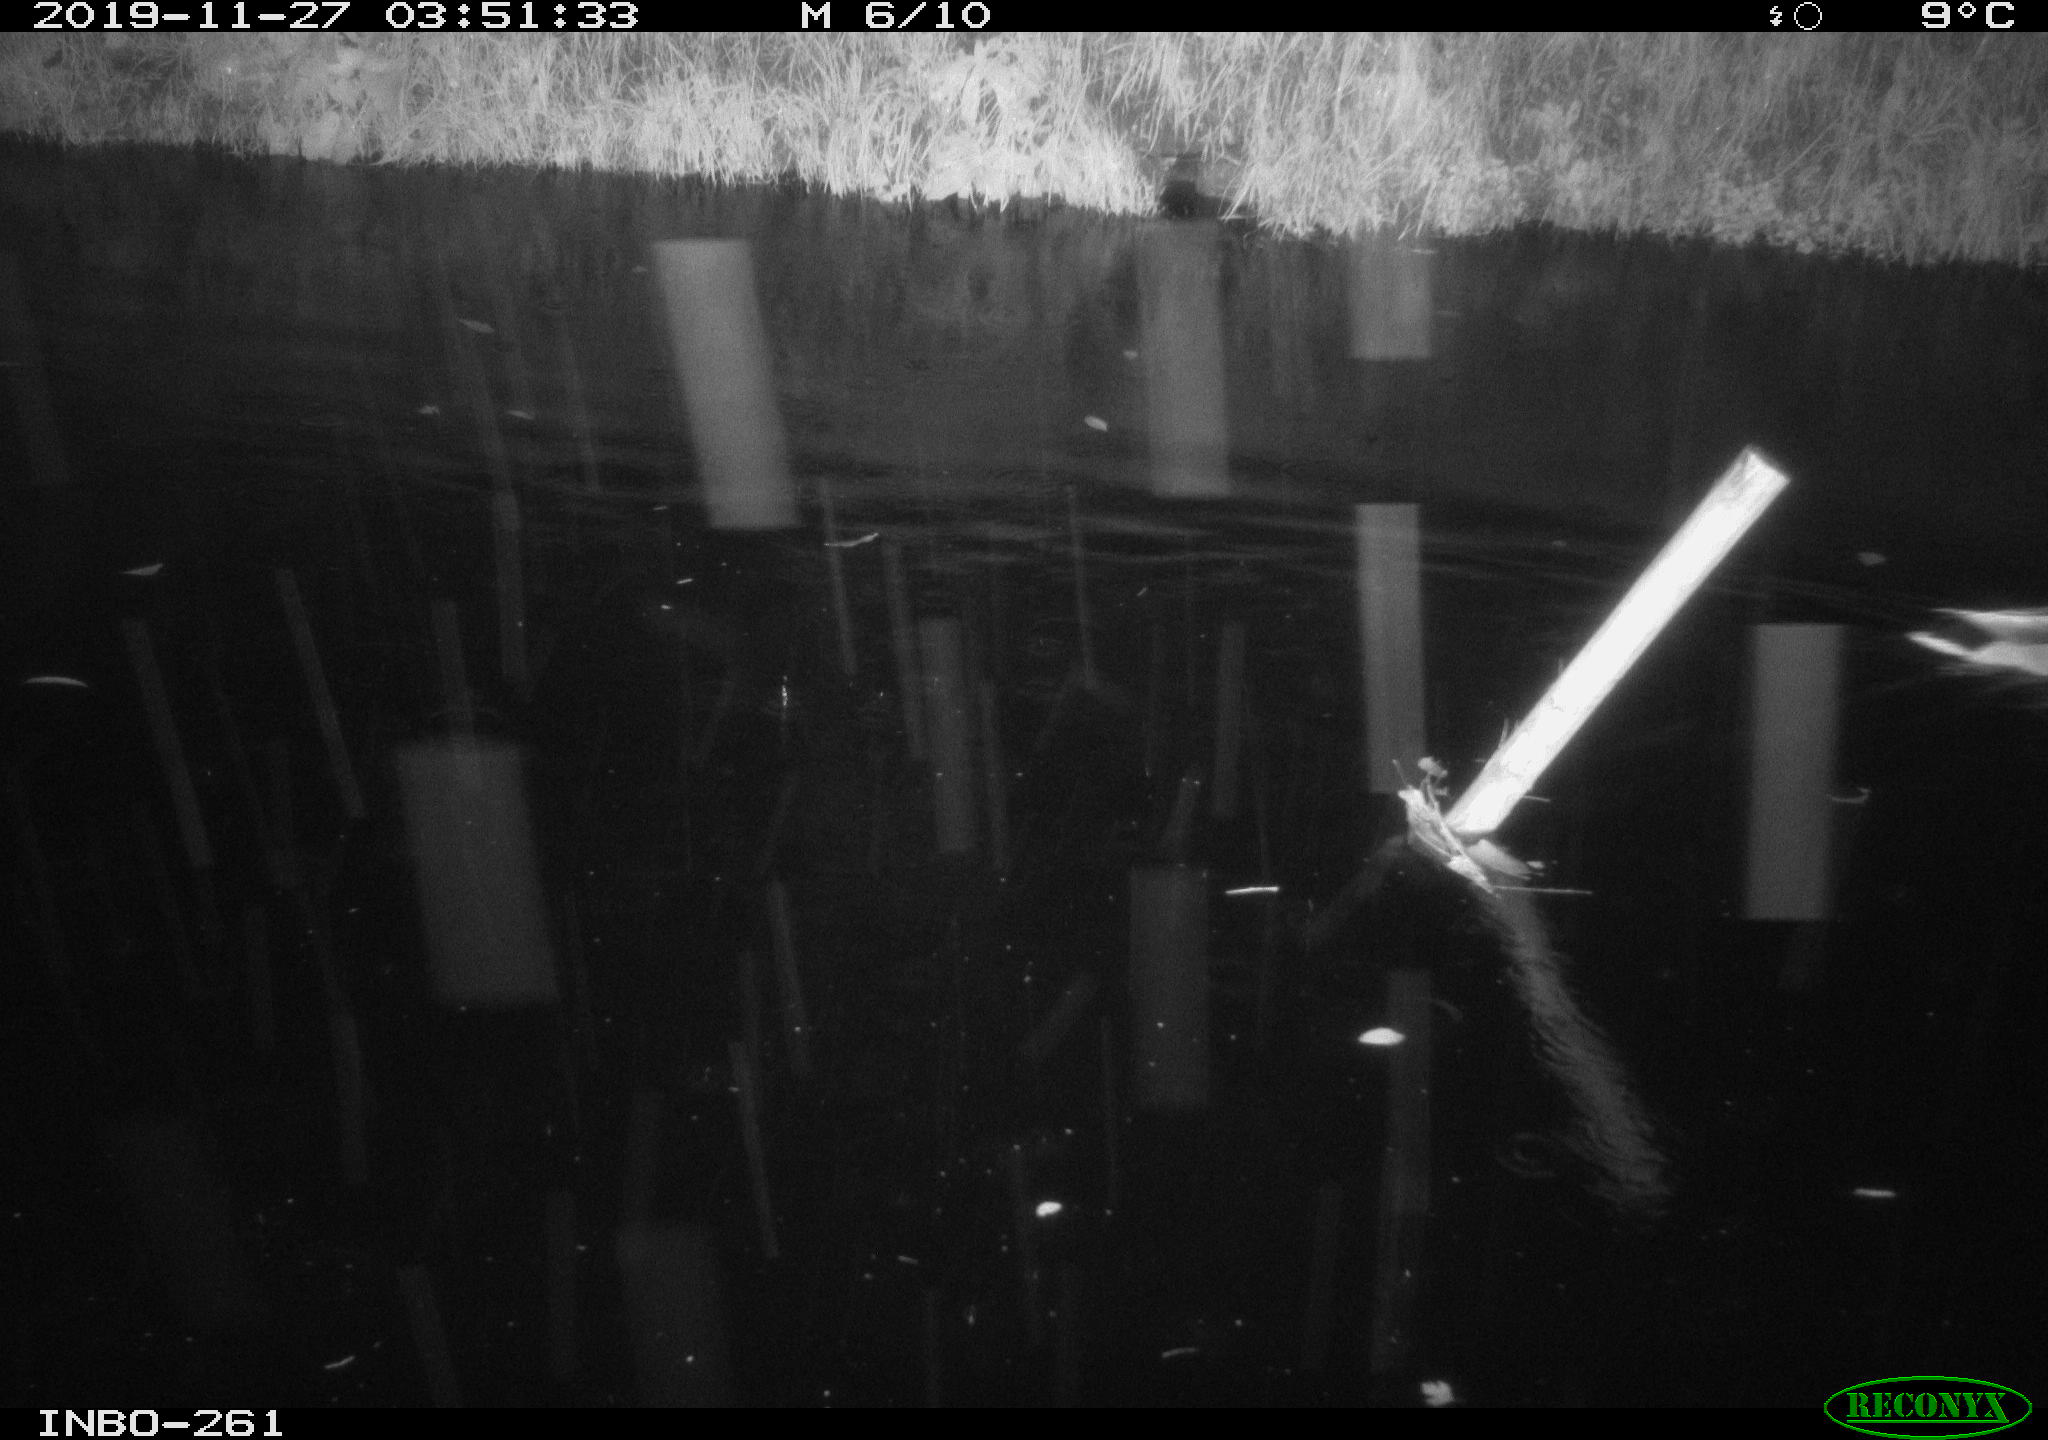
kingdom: Animalia
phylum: Chordata
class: Aves
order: Anseriformes
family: Anatidae
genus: Anas
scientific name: Anas platyrhynchos
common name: Mallard
